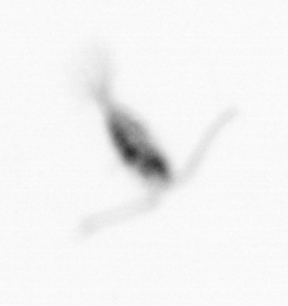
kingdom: Animalia
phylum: Arthropoda
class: Copepoda
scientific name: Copepoda
